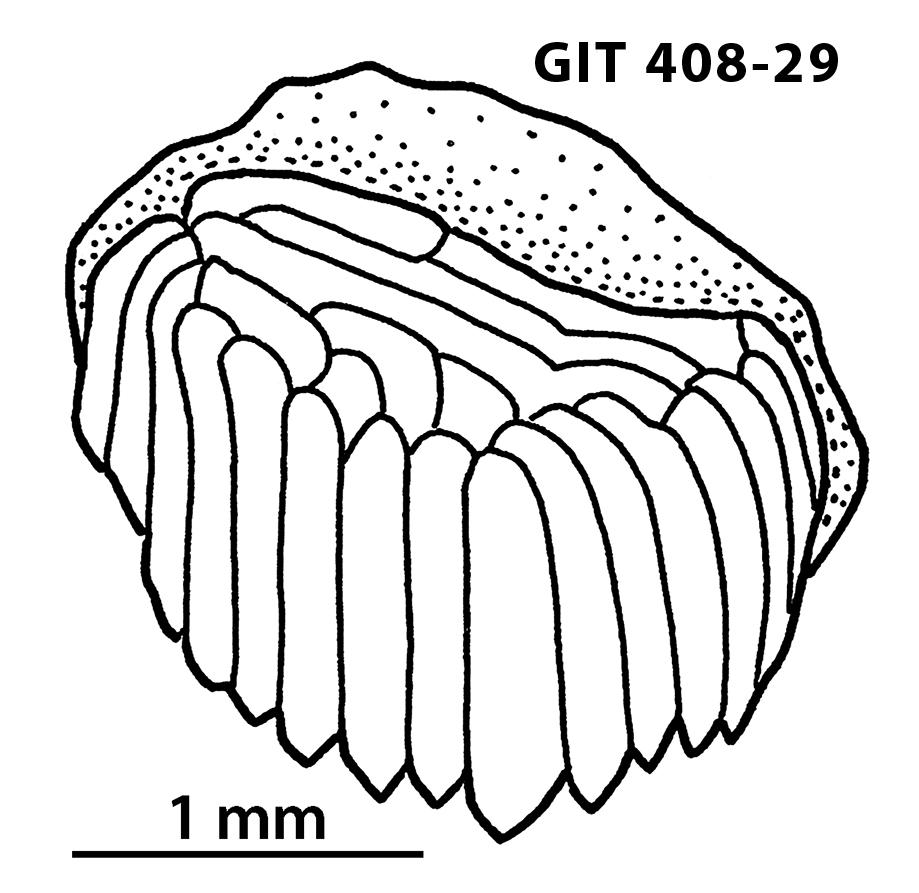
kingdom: Animalia
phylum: Chordata
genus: Archegonaspis
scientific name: Archegonaspis
